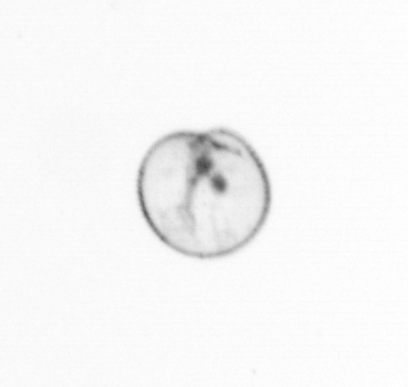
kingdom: Chromista
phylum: Myzozoa
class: Dinophyceae
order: Noctilucales
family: Noctilucaceae
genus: Noctiluca
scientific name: Noctiluca scintillans
